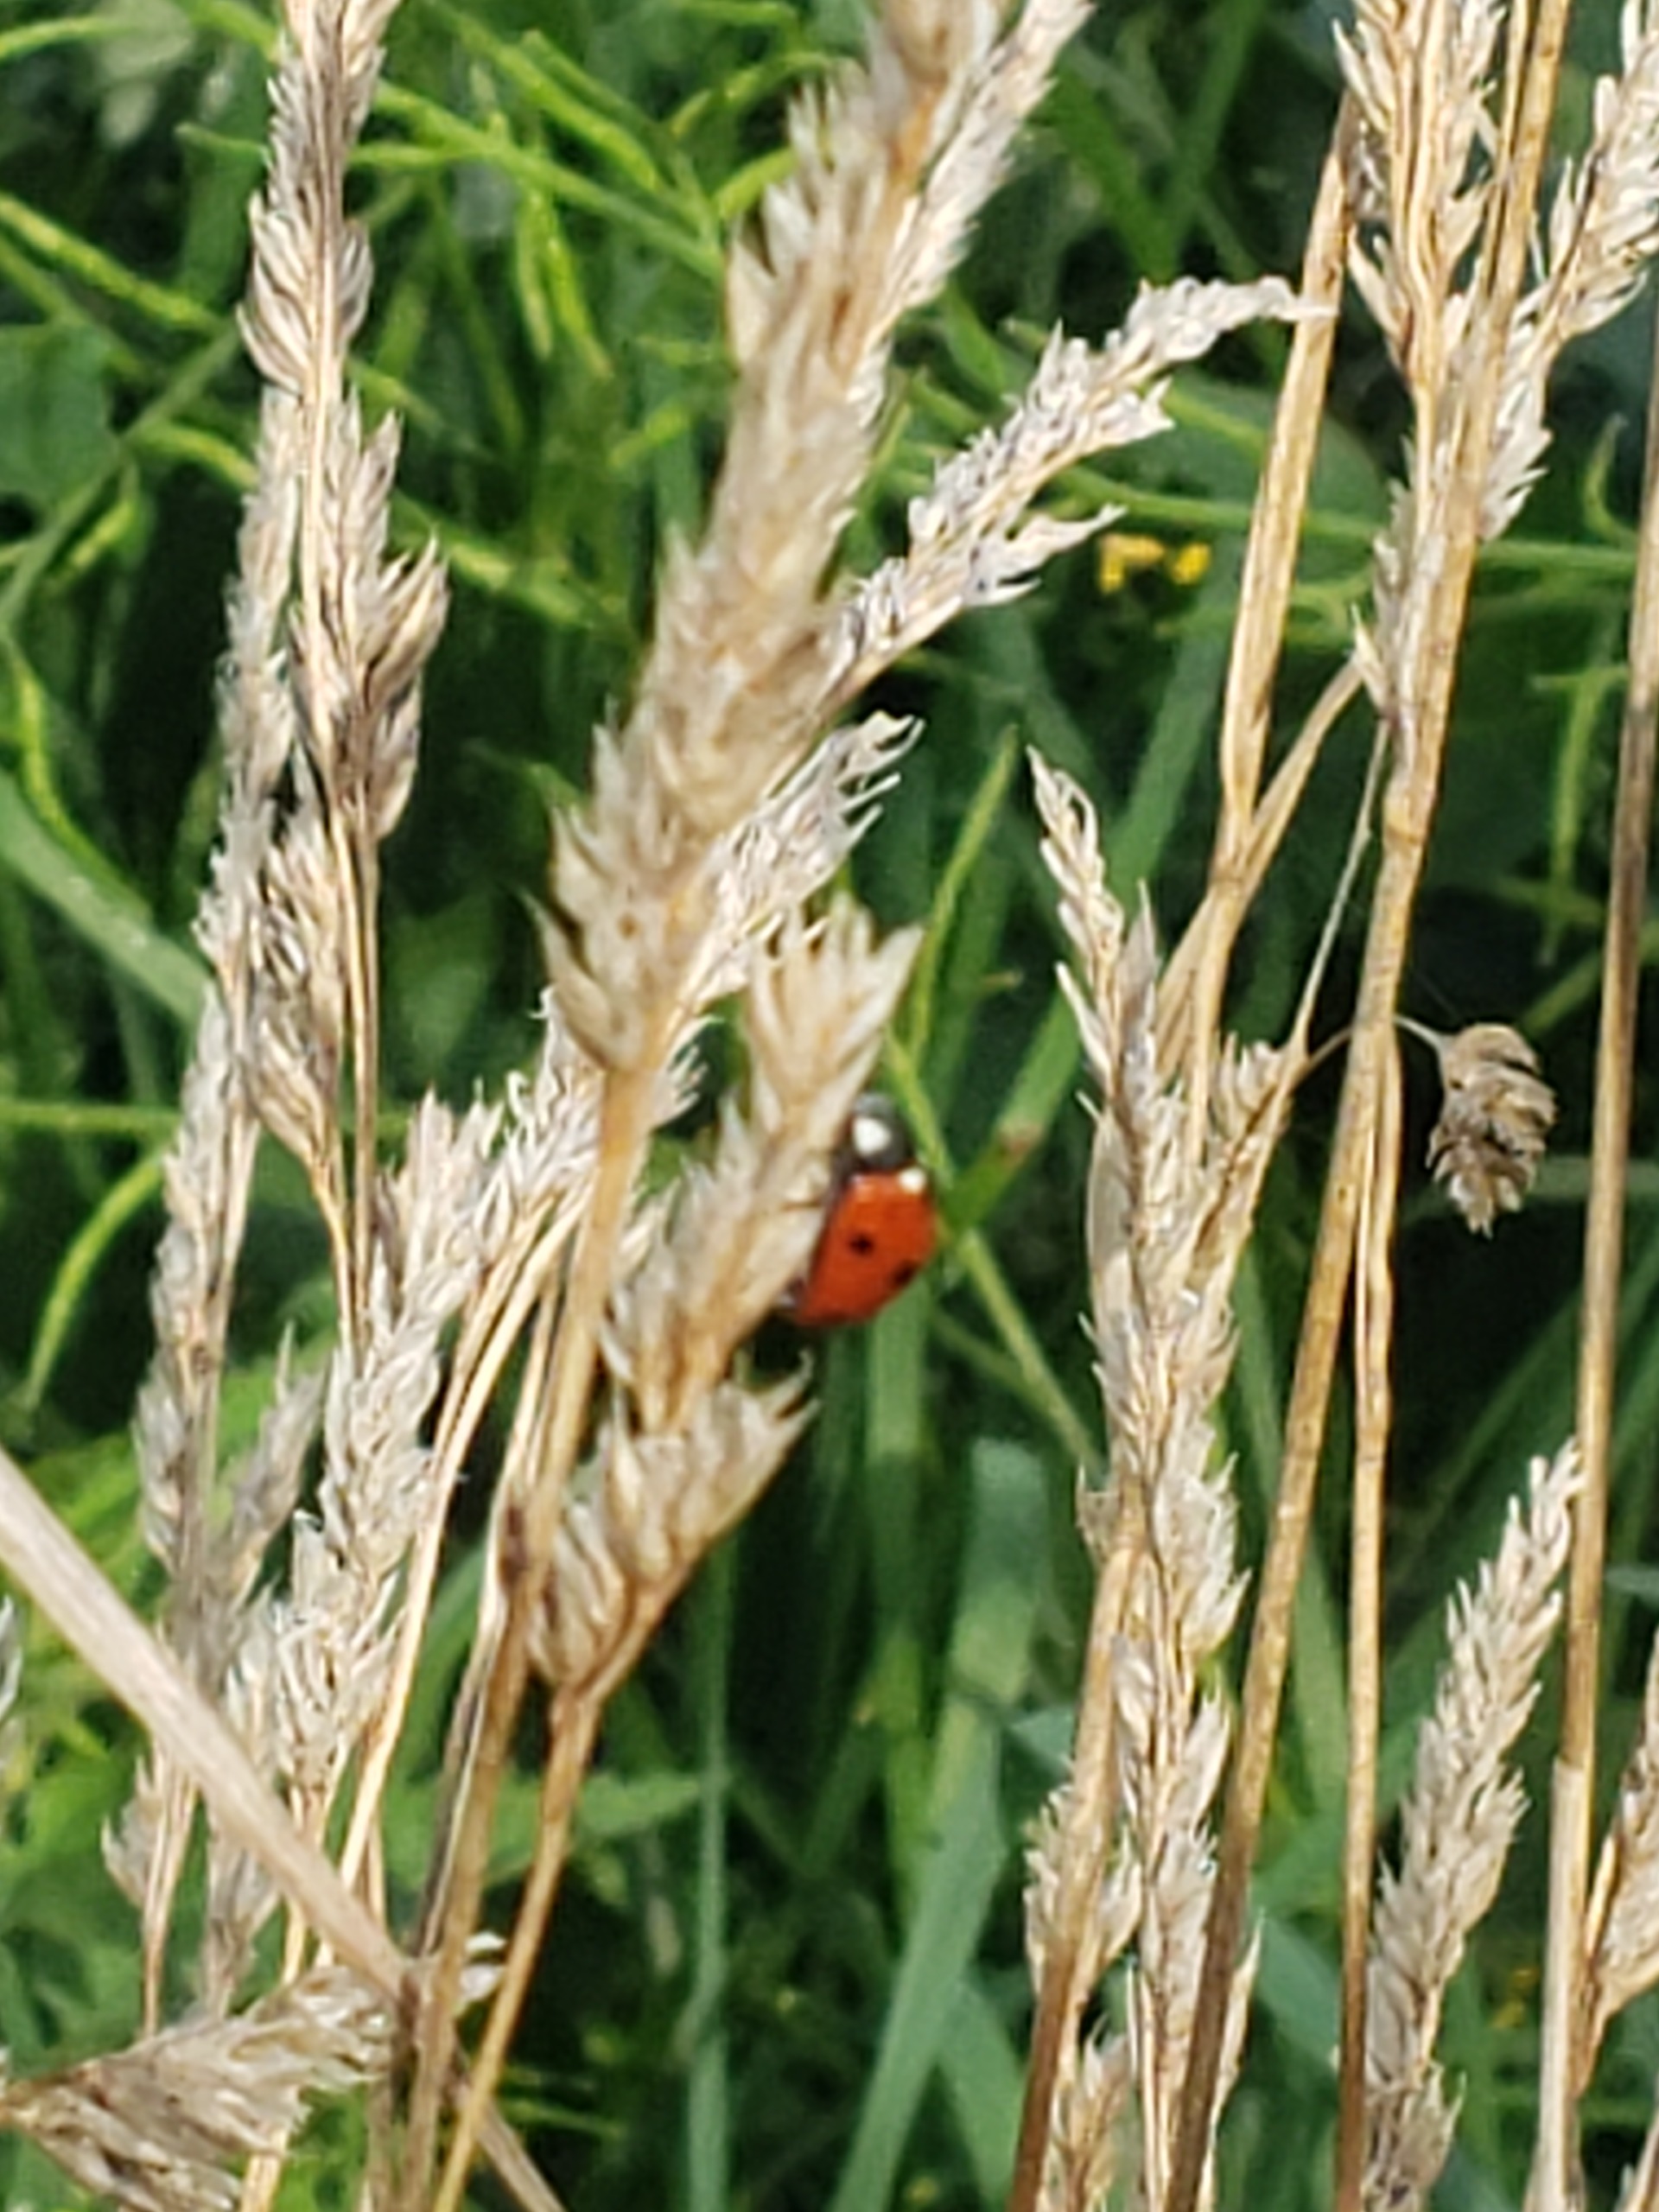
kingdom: Animalia
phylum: Arthropoda
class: Insecta
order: Coleoptera
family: Coccinellidae
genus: Coccinella
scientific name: Coccinella septempunctata
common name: Syvplettet mariehøne
